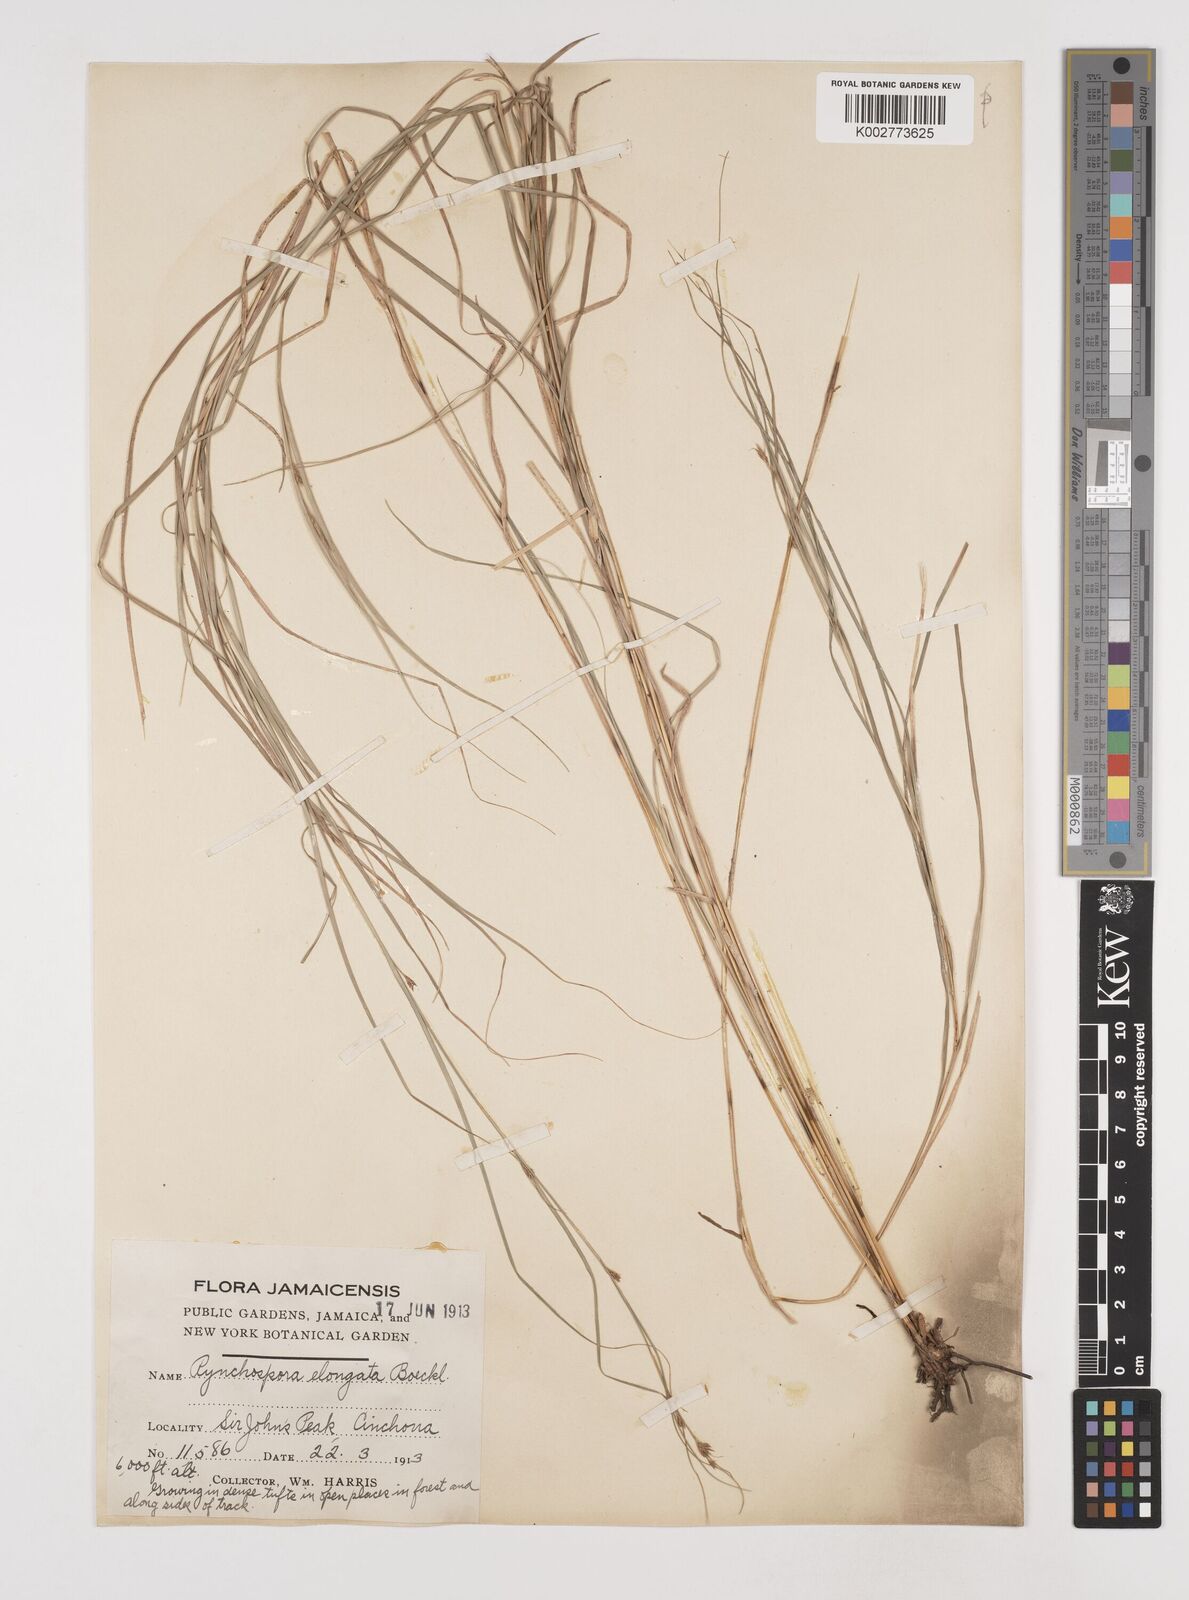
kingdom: Plantae
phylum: Tracheophyta
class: Liliopsida
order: Poales
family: Cyperaceae
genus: Rhynchospora
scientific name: Rhynchospora biflora
